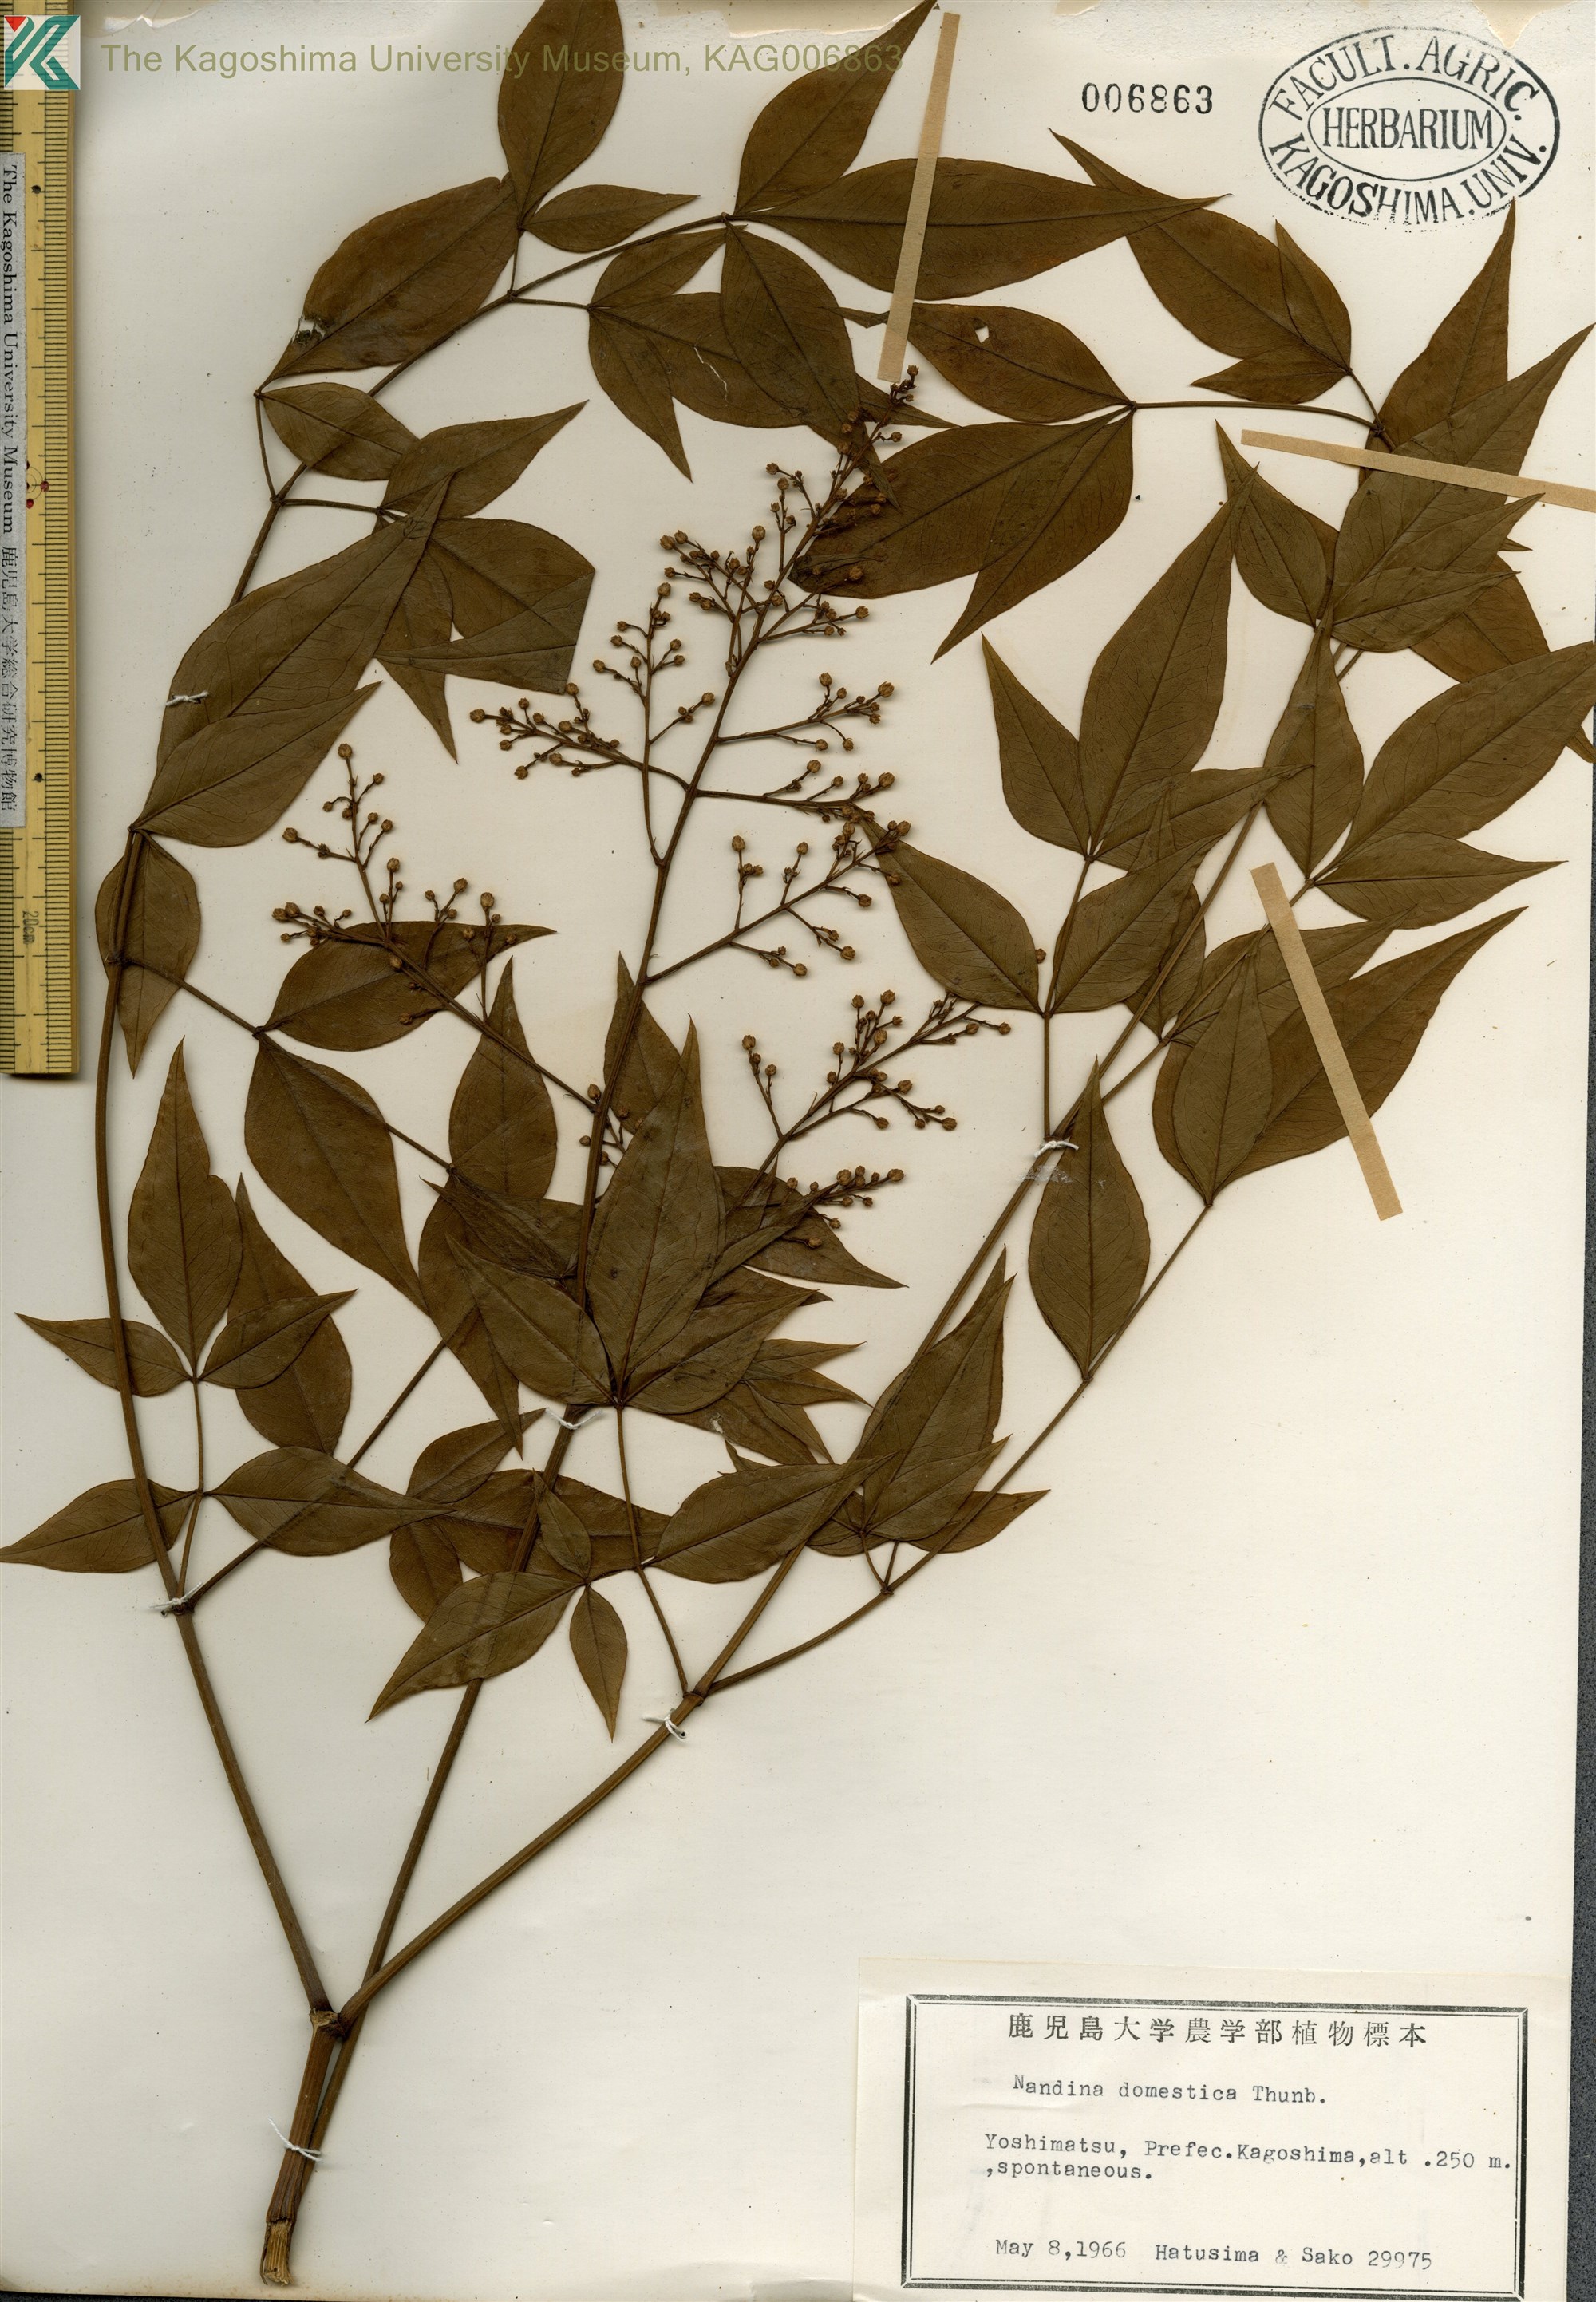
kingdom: Plantae
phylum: Tracheophyta
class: Magnoliopsida
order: Ranunculales
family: Berberidaceae
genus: Nandina
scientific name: Nandina domestica
